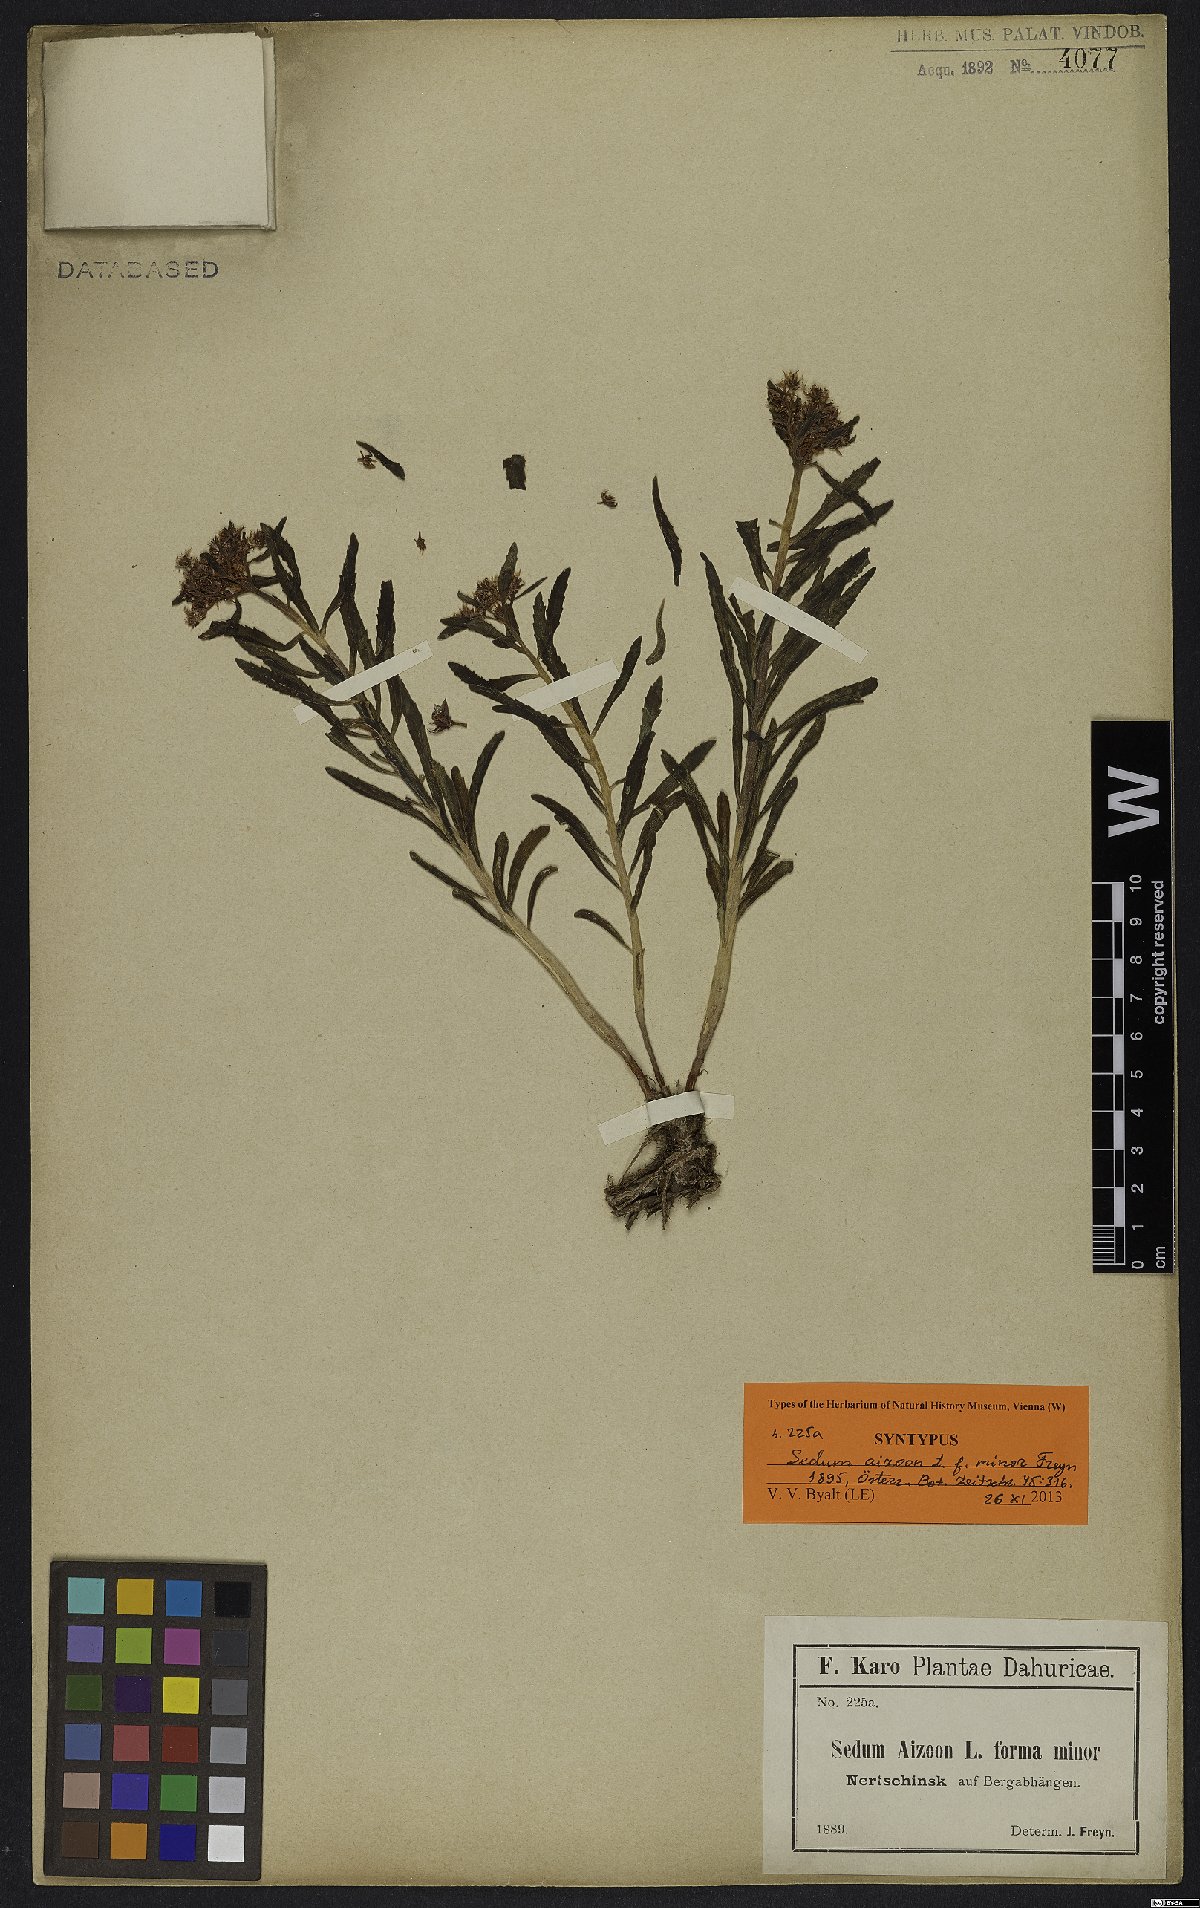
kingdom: Plantae
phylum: Tracheophyta
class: Magnoliopsida
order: Saxifragales
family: Crassulaceae
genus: Sedum
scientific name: Sedum aizoon
